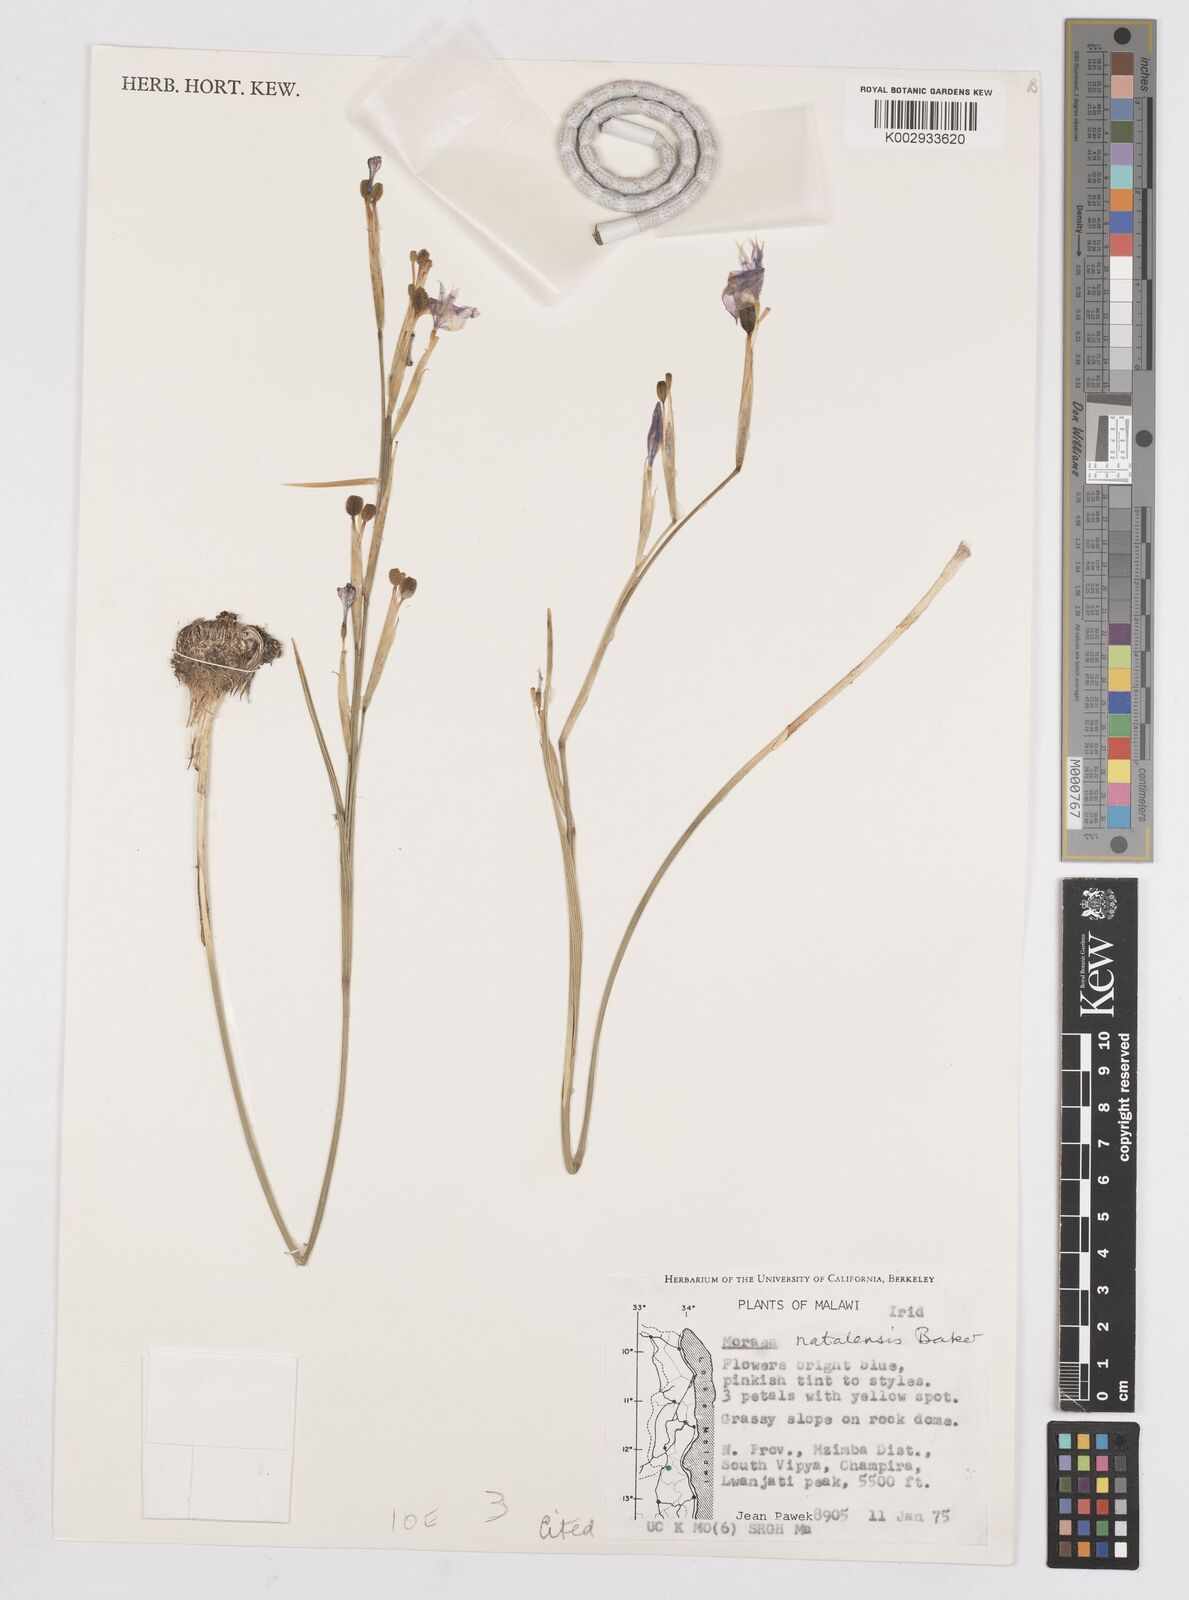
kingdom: Plantae
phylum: Tracheophyta
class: Liliopsida
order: Asparagales
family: Iridaceae
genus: Moraea
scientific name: Moraea natalensis
